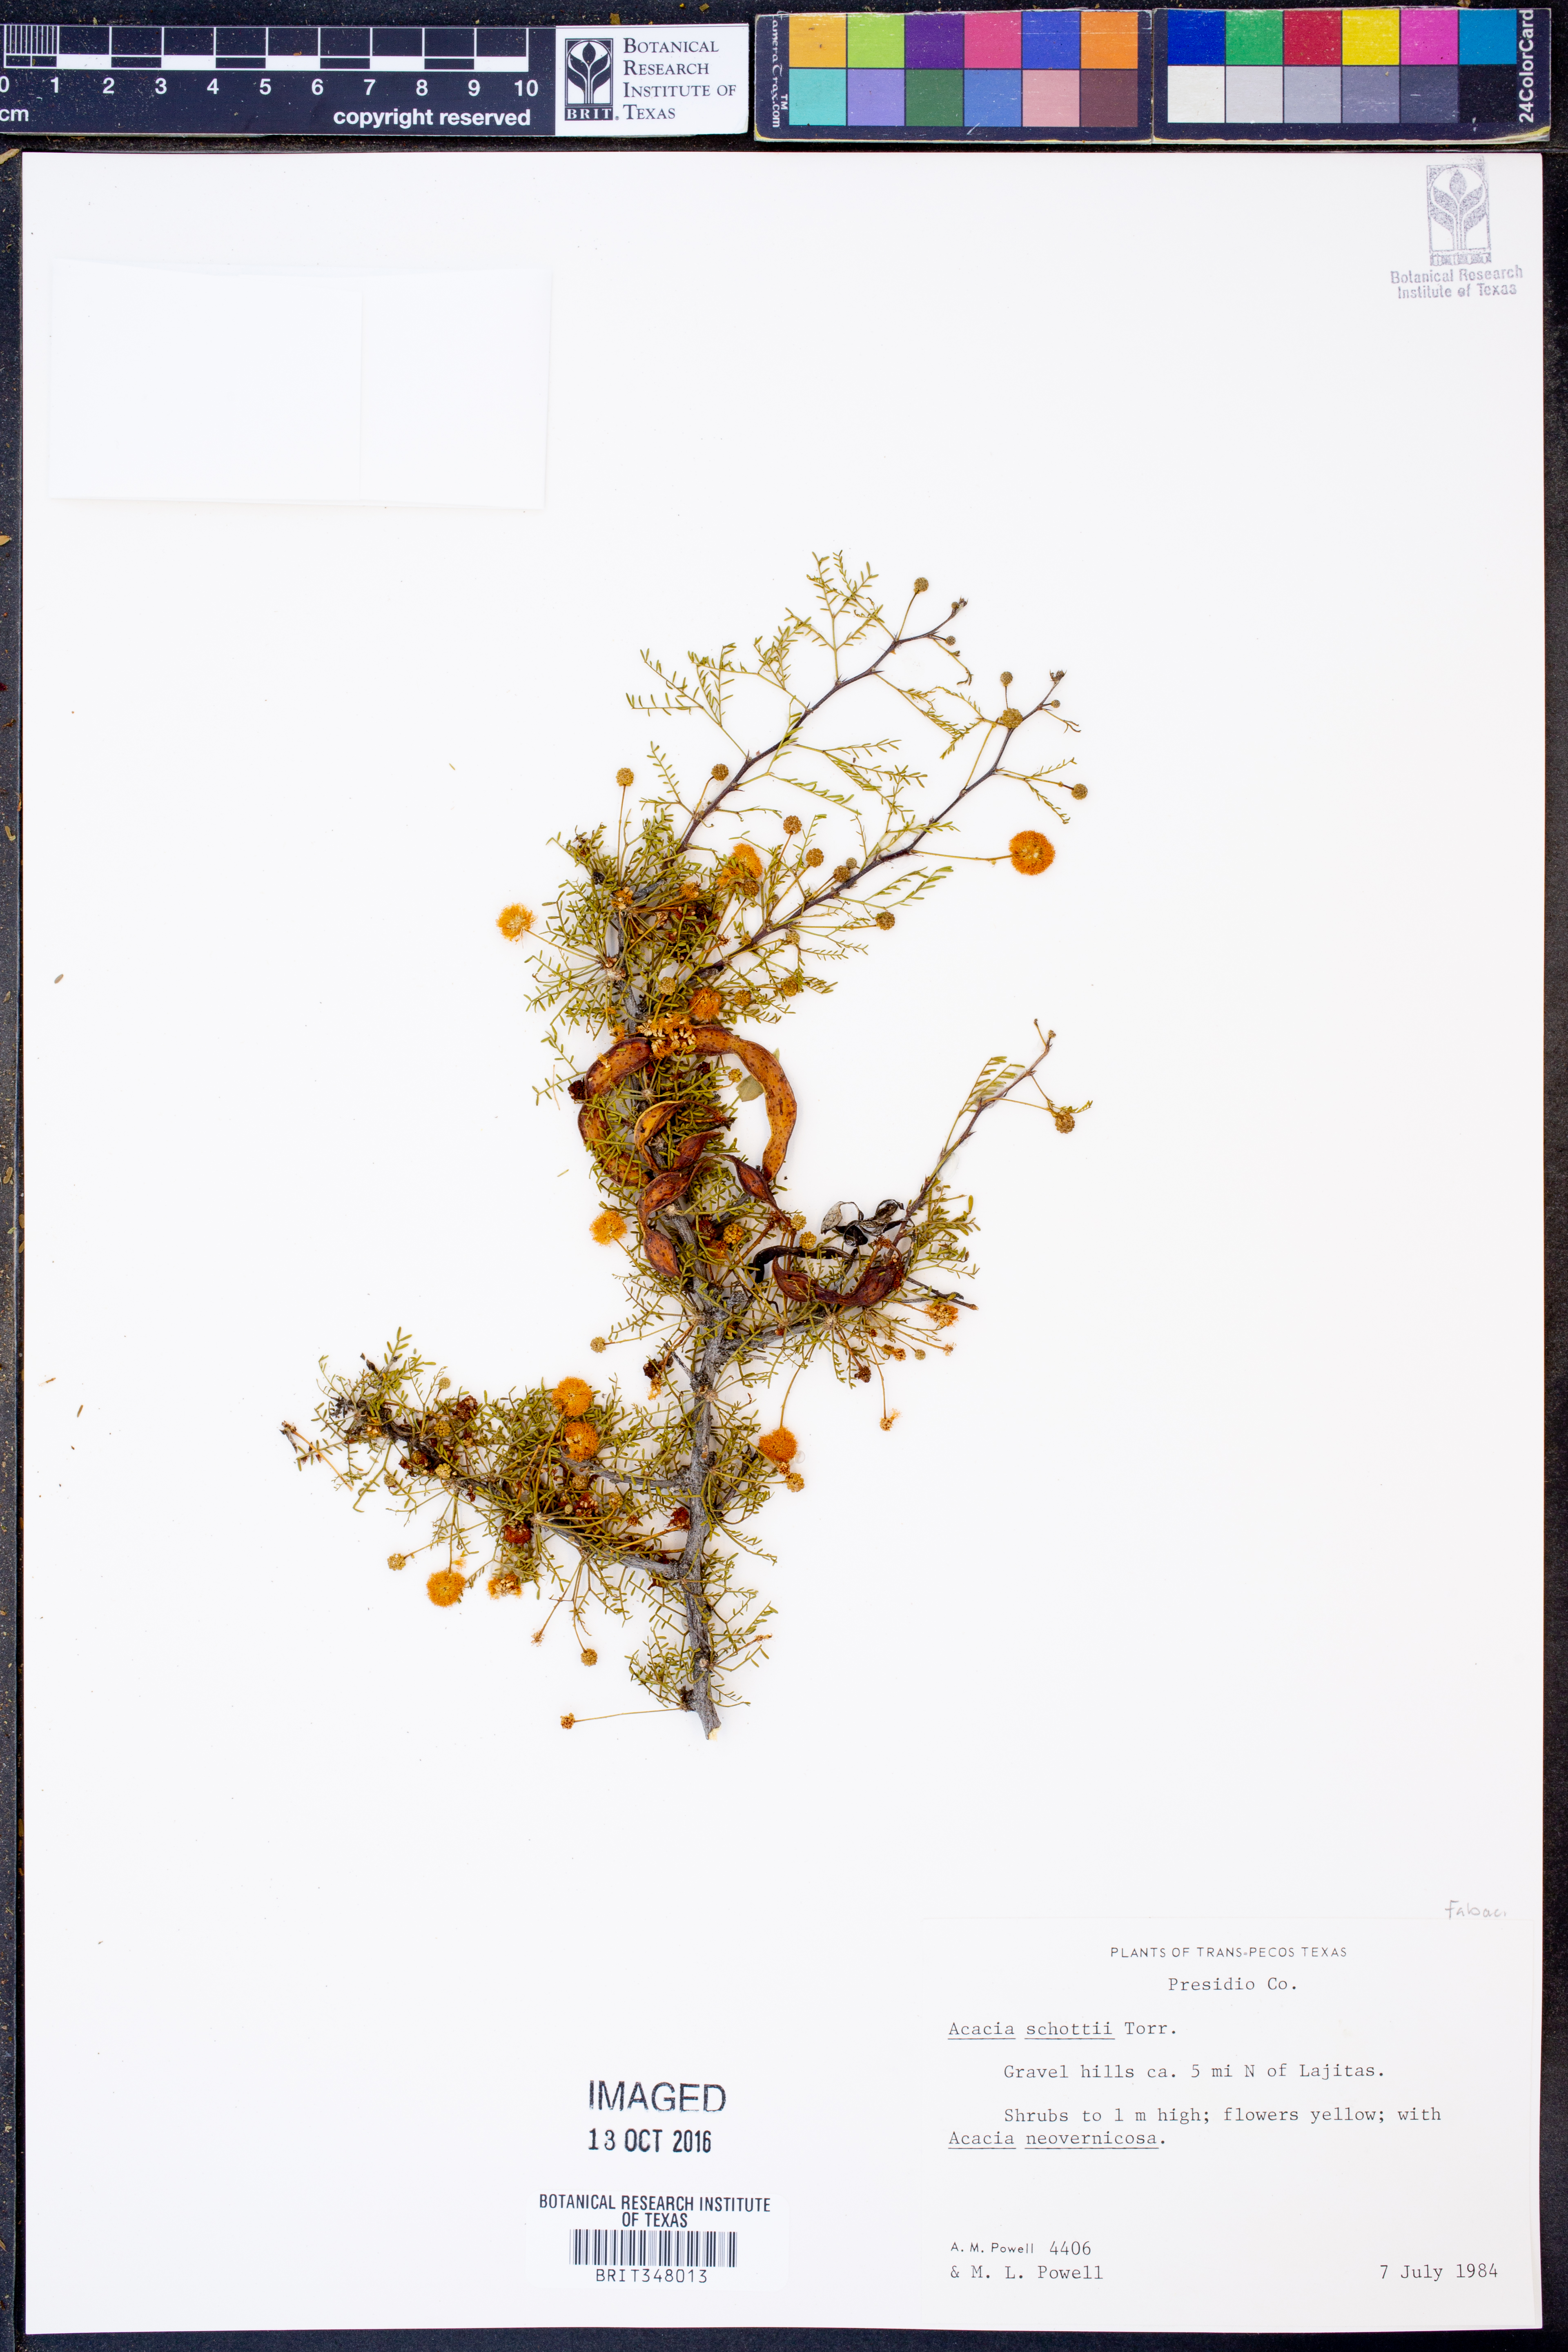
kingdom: Plantae
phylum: Tracheophyta
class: Magnoliopsida
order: Fabales
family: Fabaceae
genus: Vachellia
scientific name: Vachellia schottii
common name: Schott acacia
